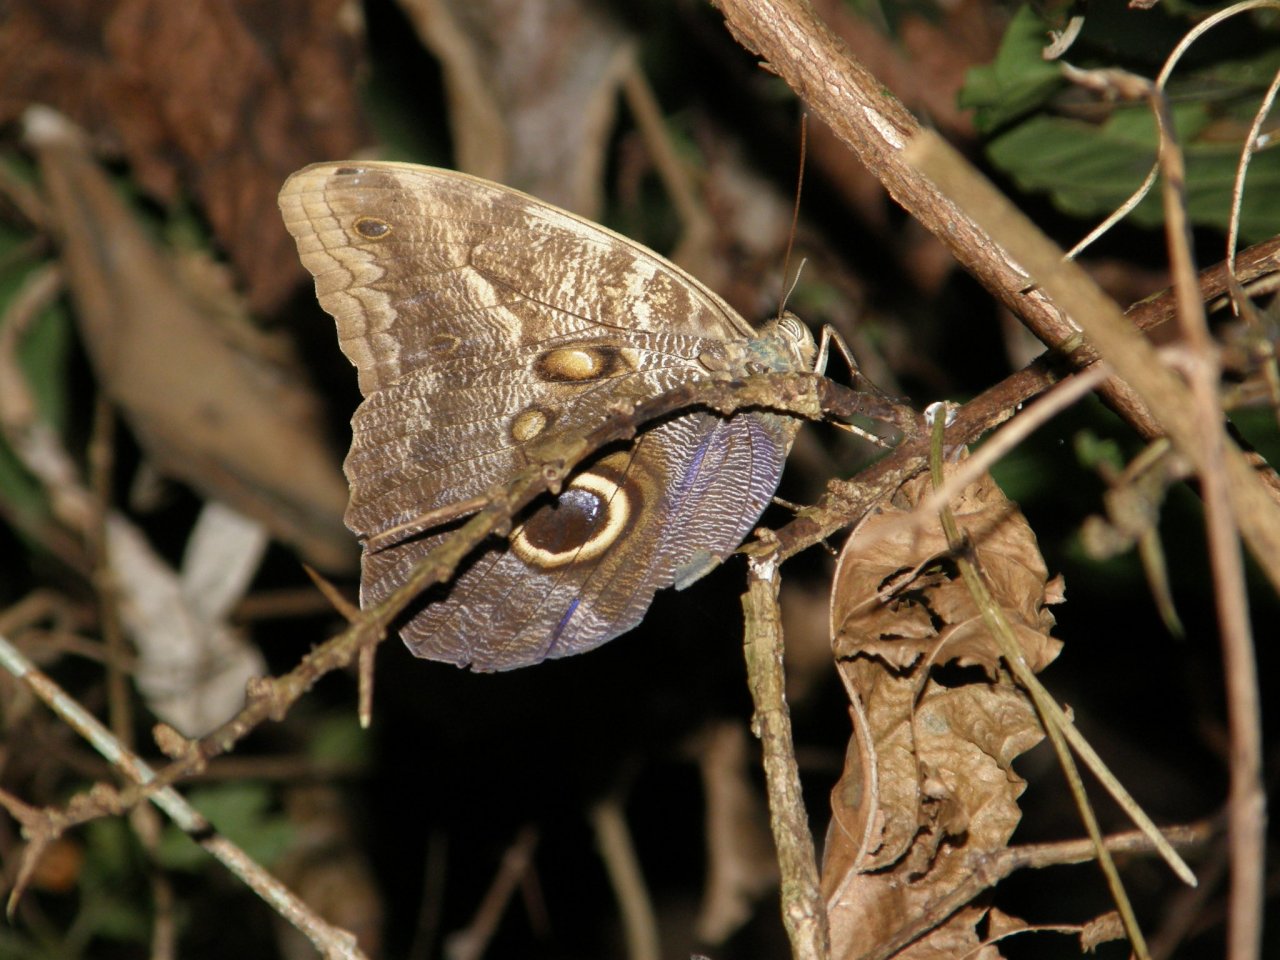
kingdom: Animalia
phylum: Arthropoda
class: Insecta
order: Lepidoptera
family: Nymphalidae
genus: Caligo
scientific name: Caligo brasiliensis
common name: Dark Owl-Butterfly
